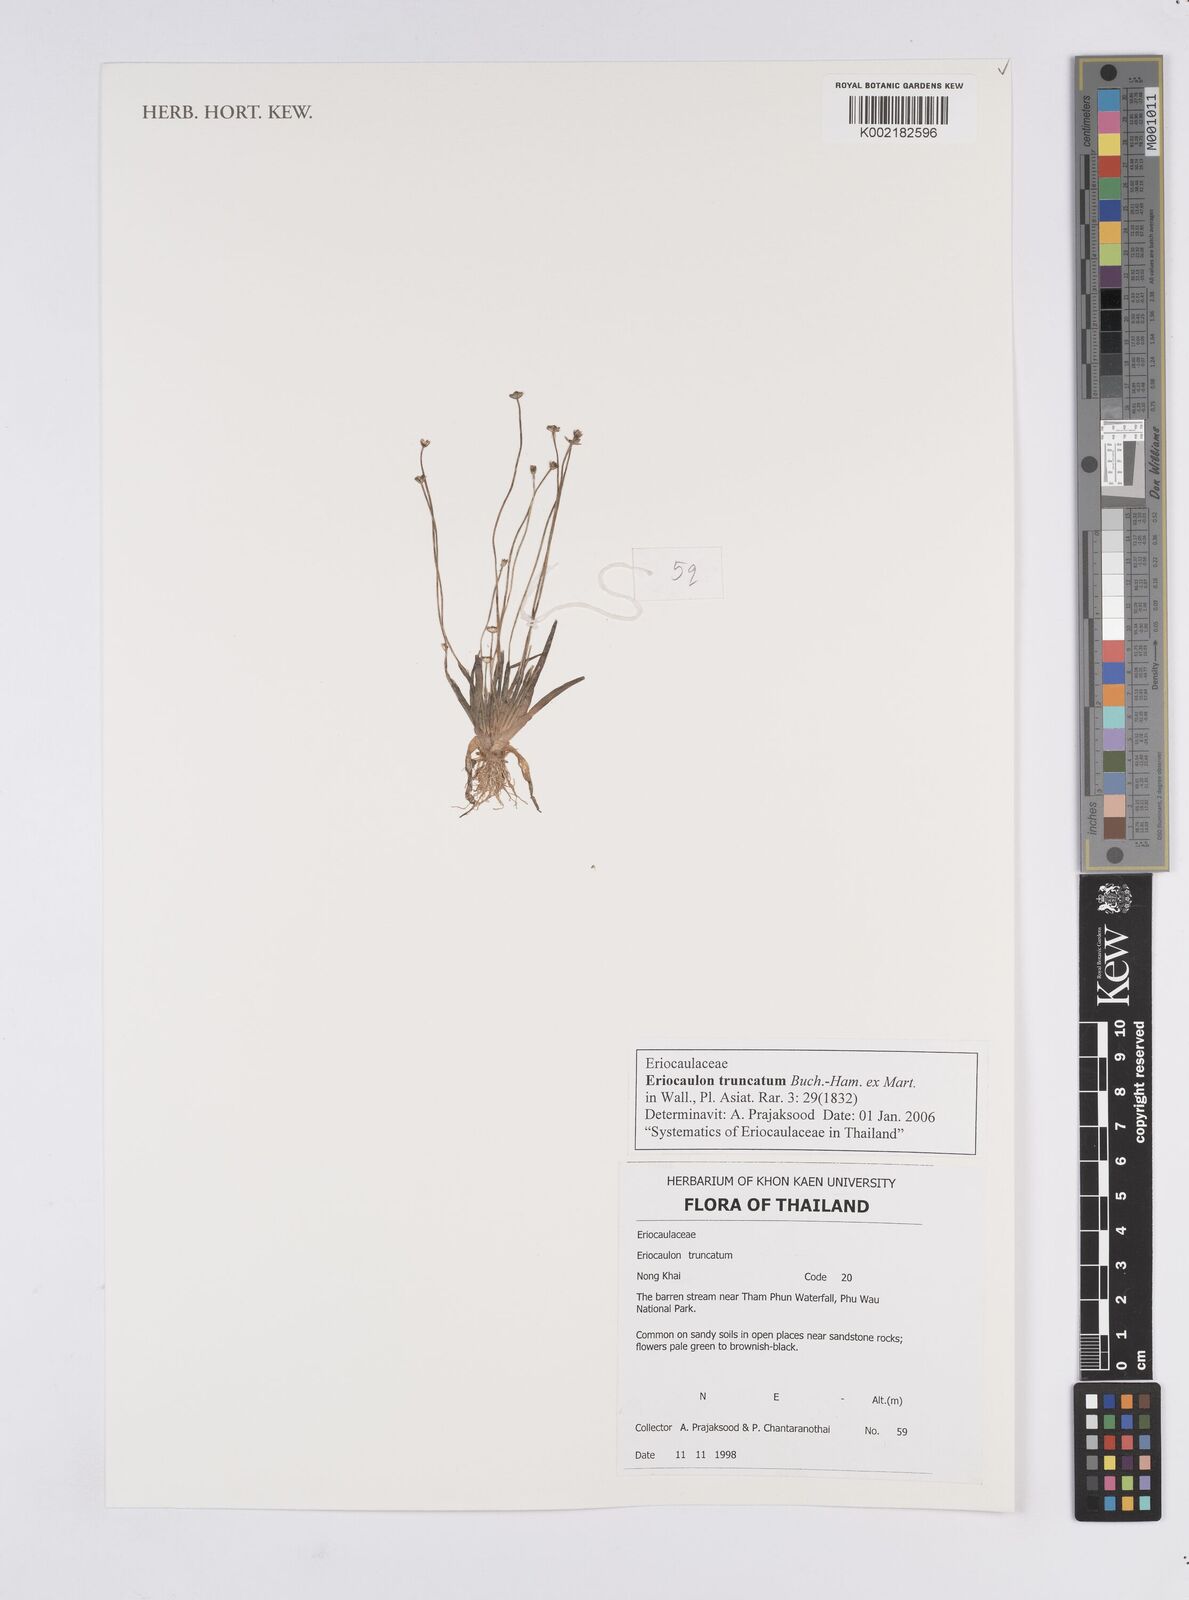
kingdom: Plantae
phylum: Tracheophyta
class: Liliopsida
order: Poales
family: Eriocaulaceae
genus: Eriocaulon
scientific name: Eriocaulon truncatum
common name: Short pipe-wort
